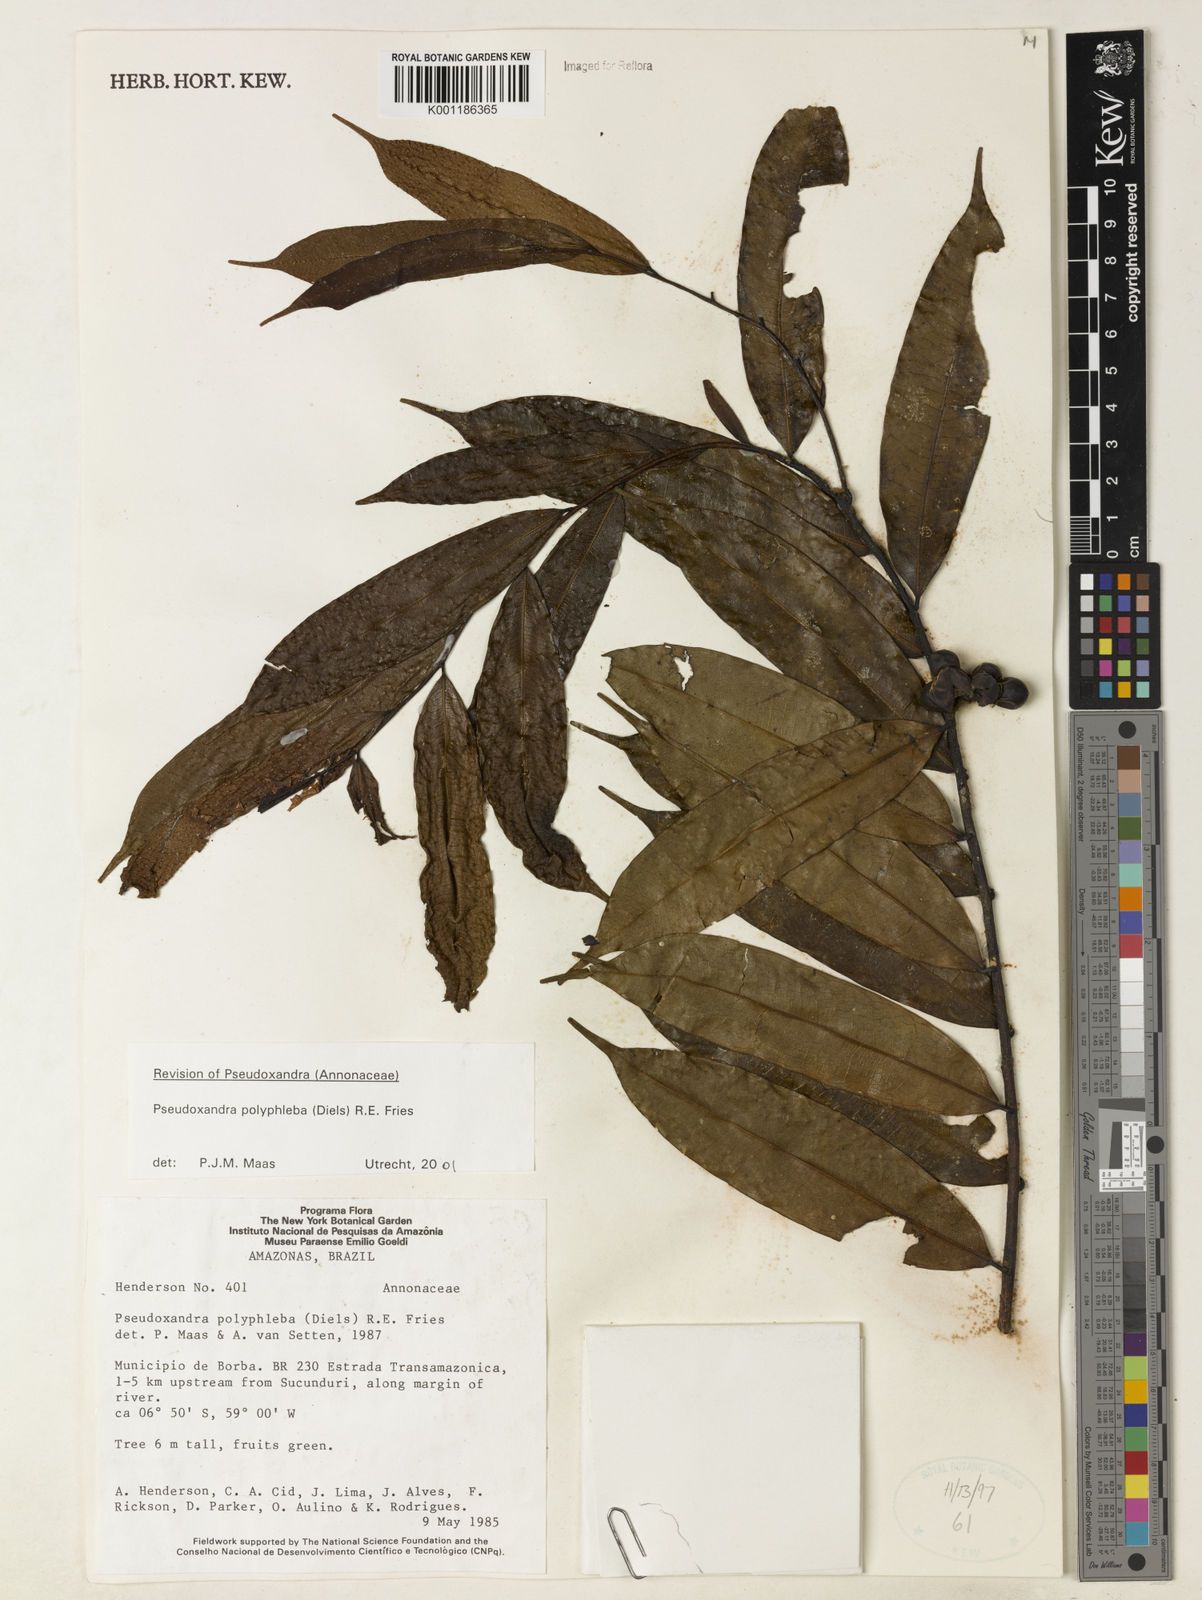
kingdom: Plantae
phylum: Tracheophyta
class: Magnoliopsida
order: Magnoliales
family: Annonaceae
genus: Pseudoxandra
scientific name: Pseudoxandra polyphleba
